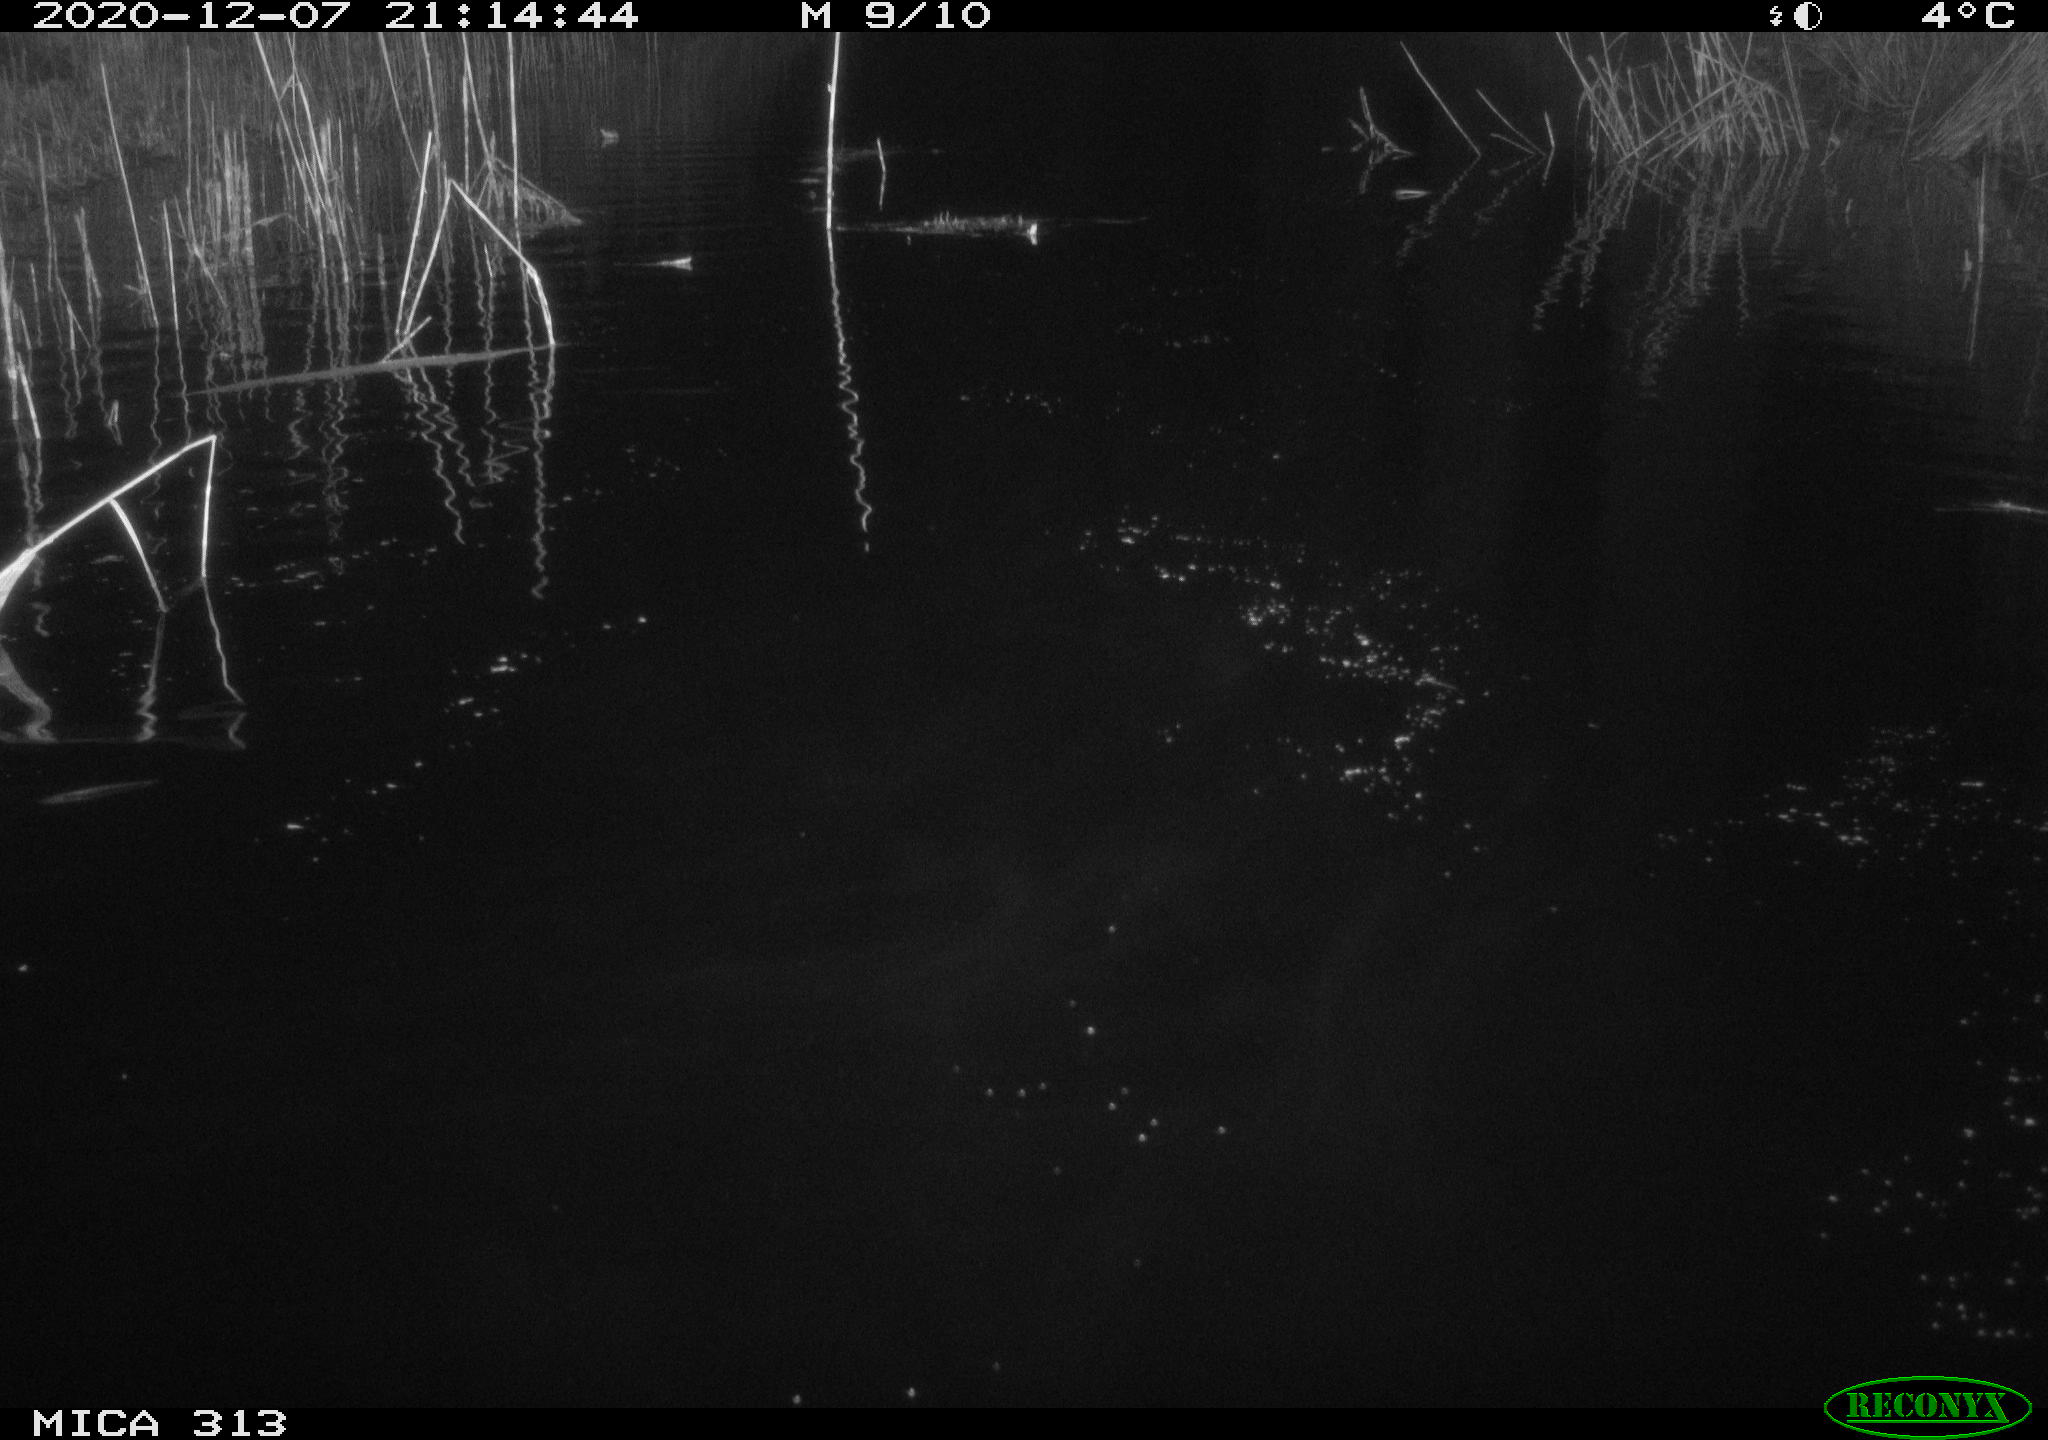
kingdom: Animalia
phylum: Chordata
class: Mammalia
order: Rodentia
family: Muridae
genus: Rattus
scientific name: Rattus norvegicus
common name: Brown rat
